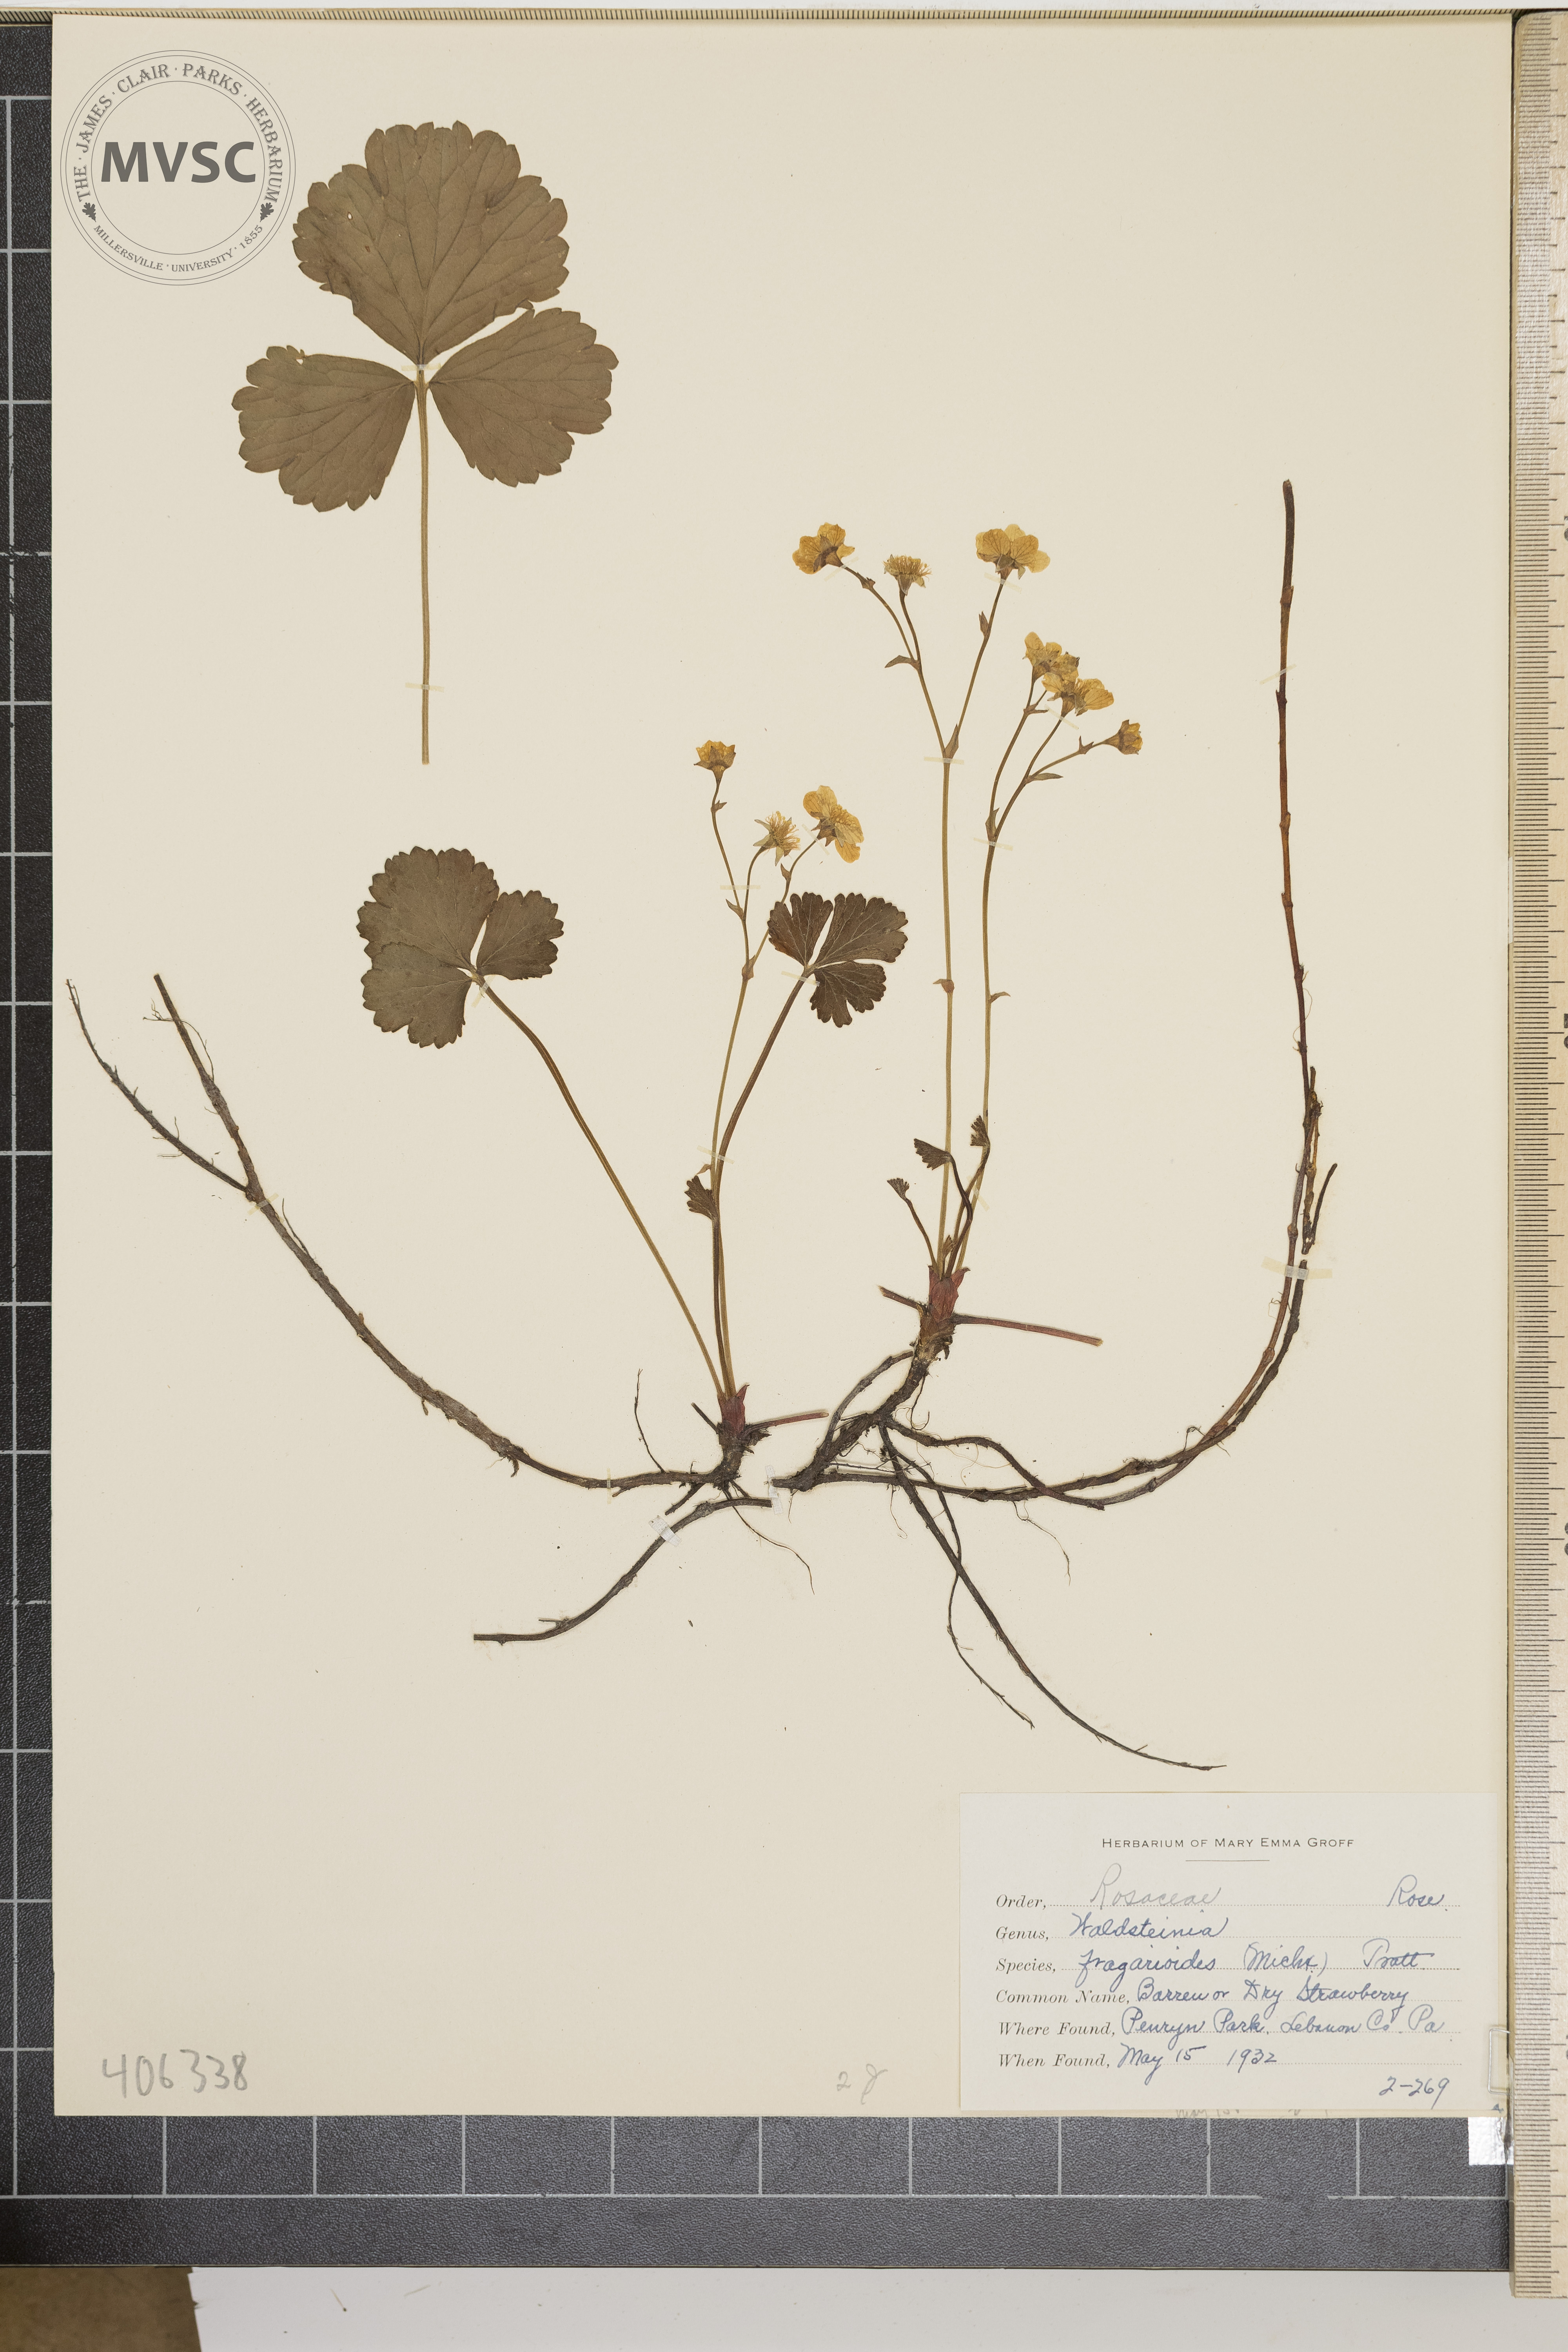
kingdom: Plantae
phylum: Tracheophyta
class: Magnoliopsida
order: Rosales
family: Rosaceae
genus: Geum
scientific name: Geum fragarioides
